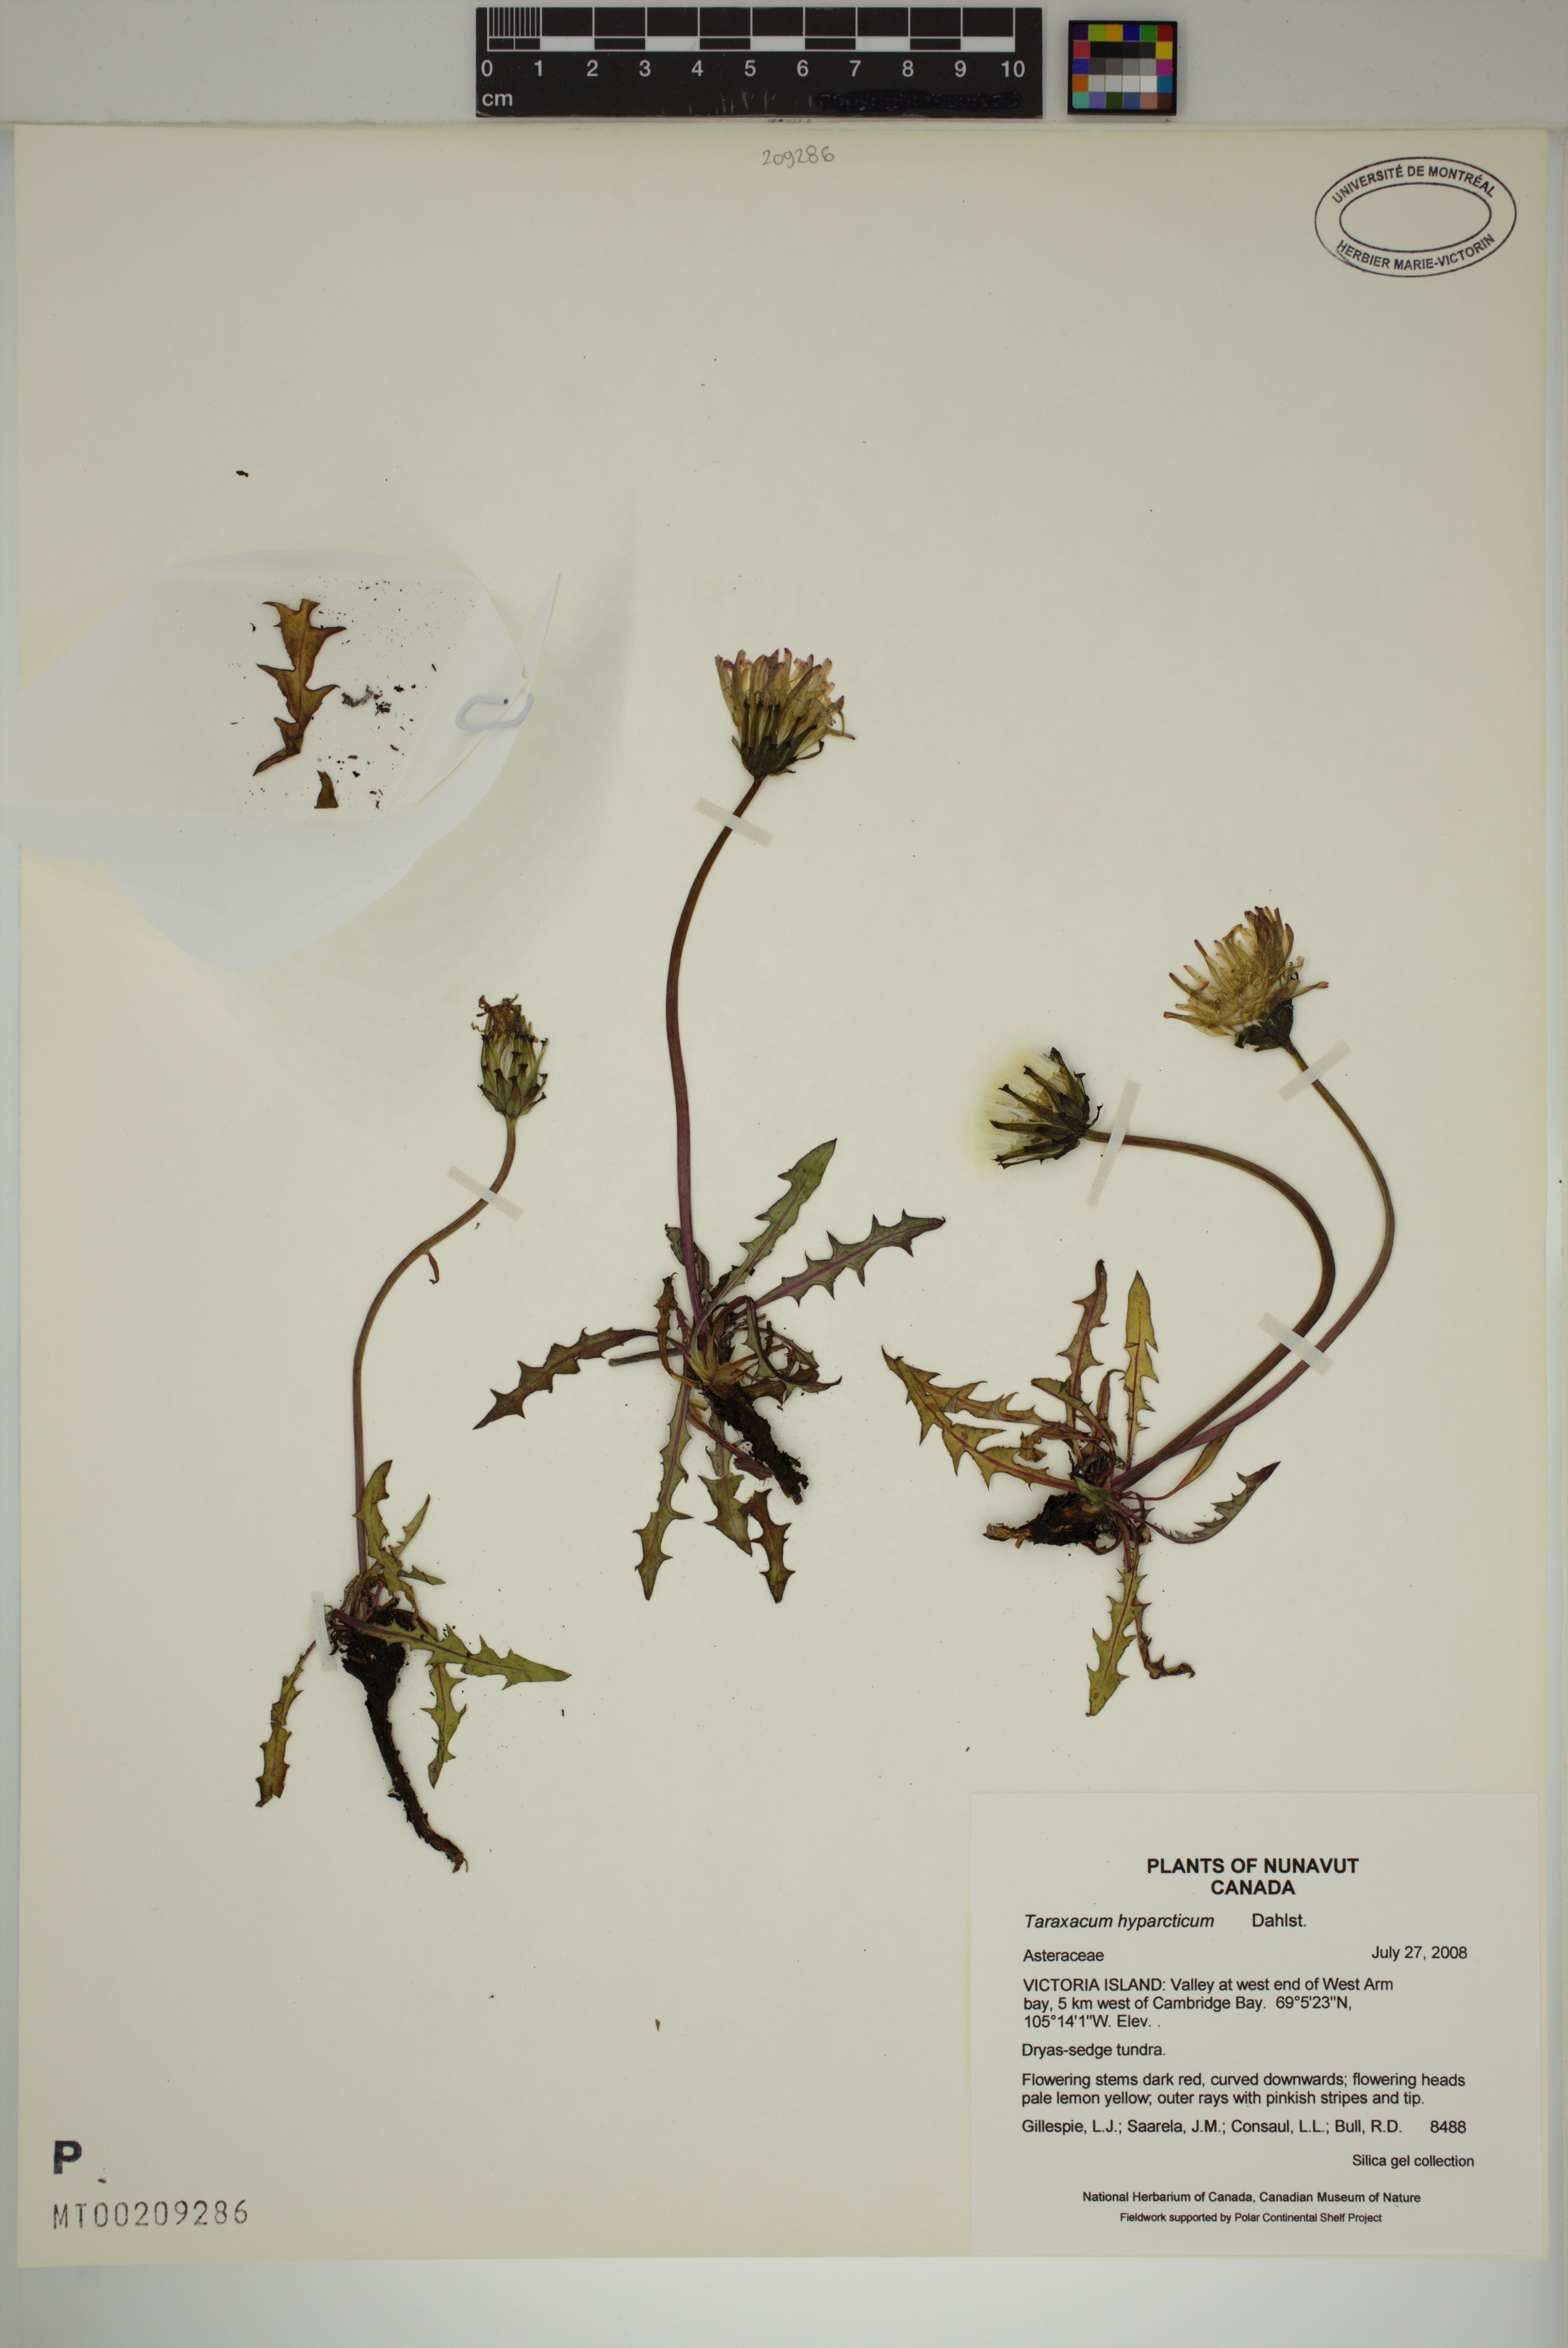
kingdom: Plantae
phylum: Tracheophyta
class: Magnoliopsida
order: Asterales
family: Asteraceae
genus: Taraxacum
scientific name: Taraxacum hyparcticum
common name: High arctic dandelion
